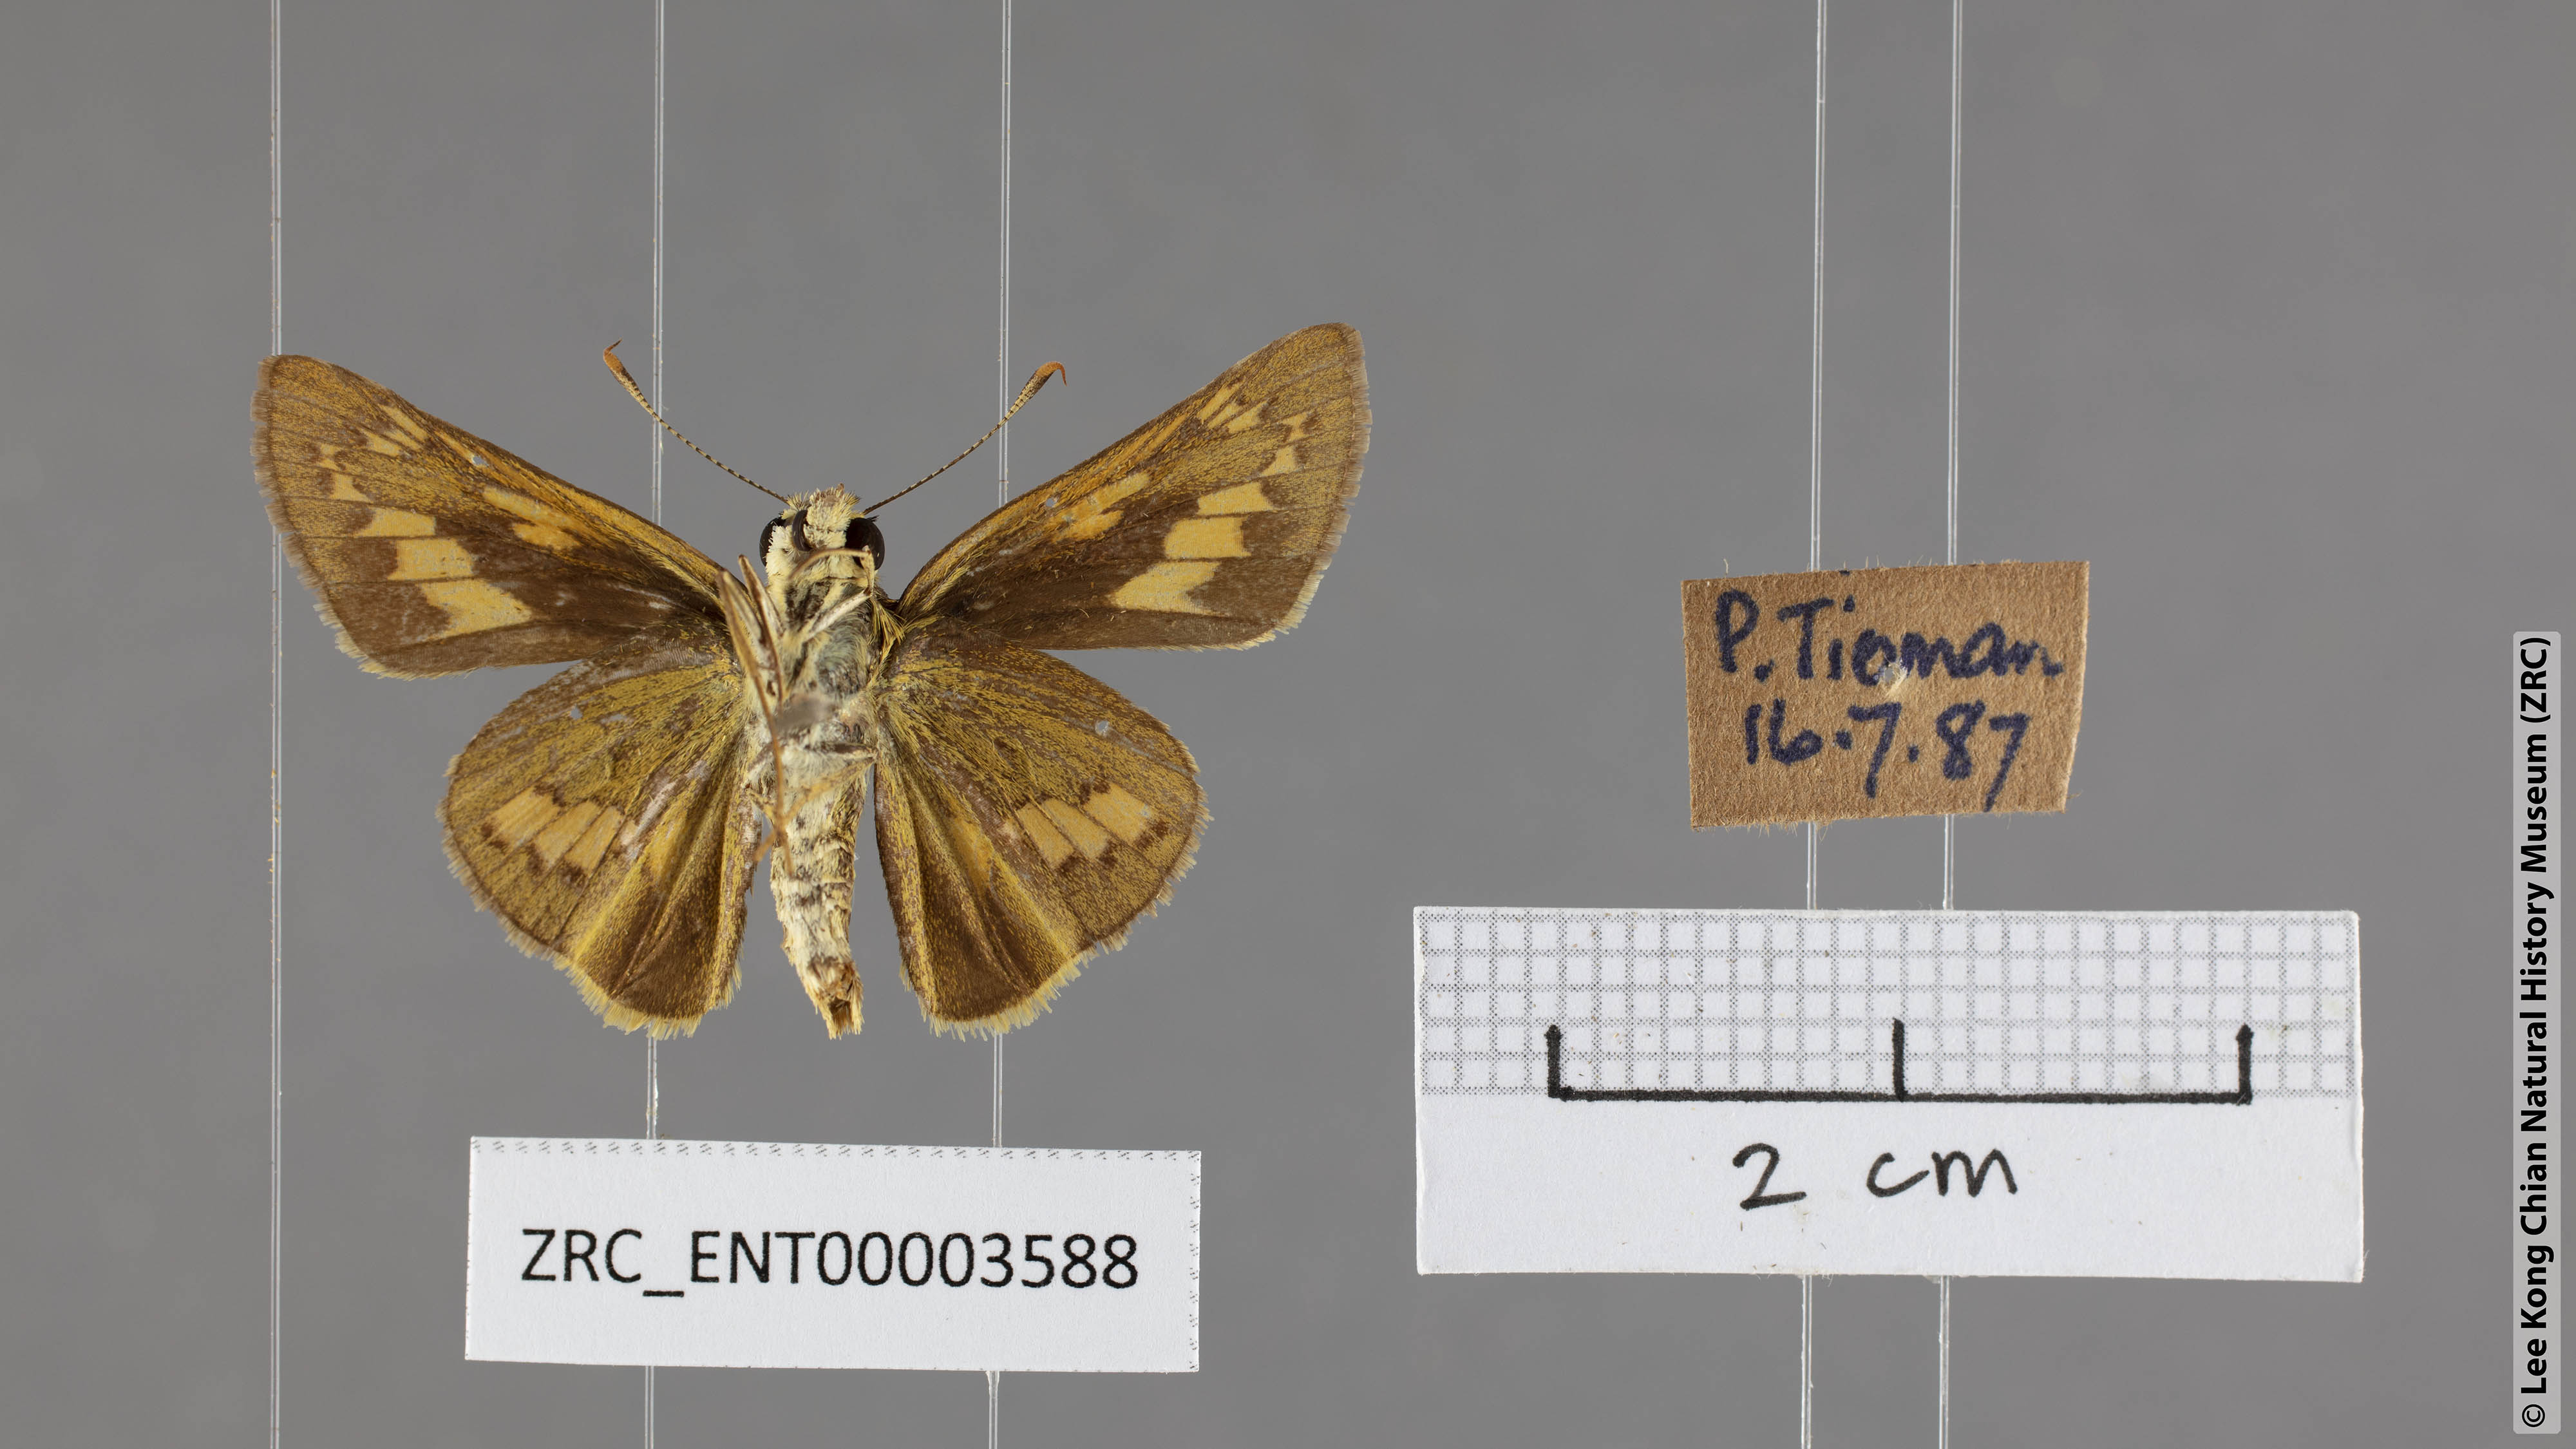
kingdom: Animalia
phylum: Arthropoda
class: Insecta
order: Lepidoptera
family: Hesperiidae
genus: Telicota
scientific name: Telicota colon
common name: Pale palm dart
